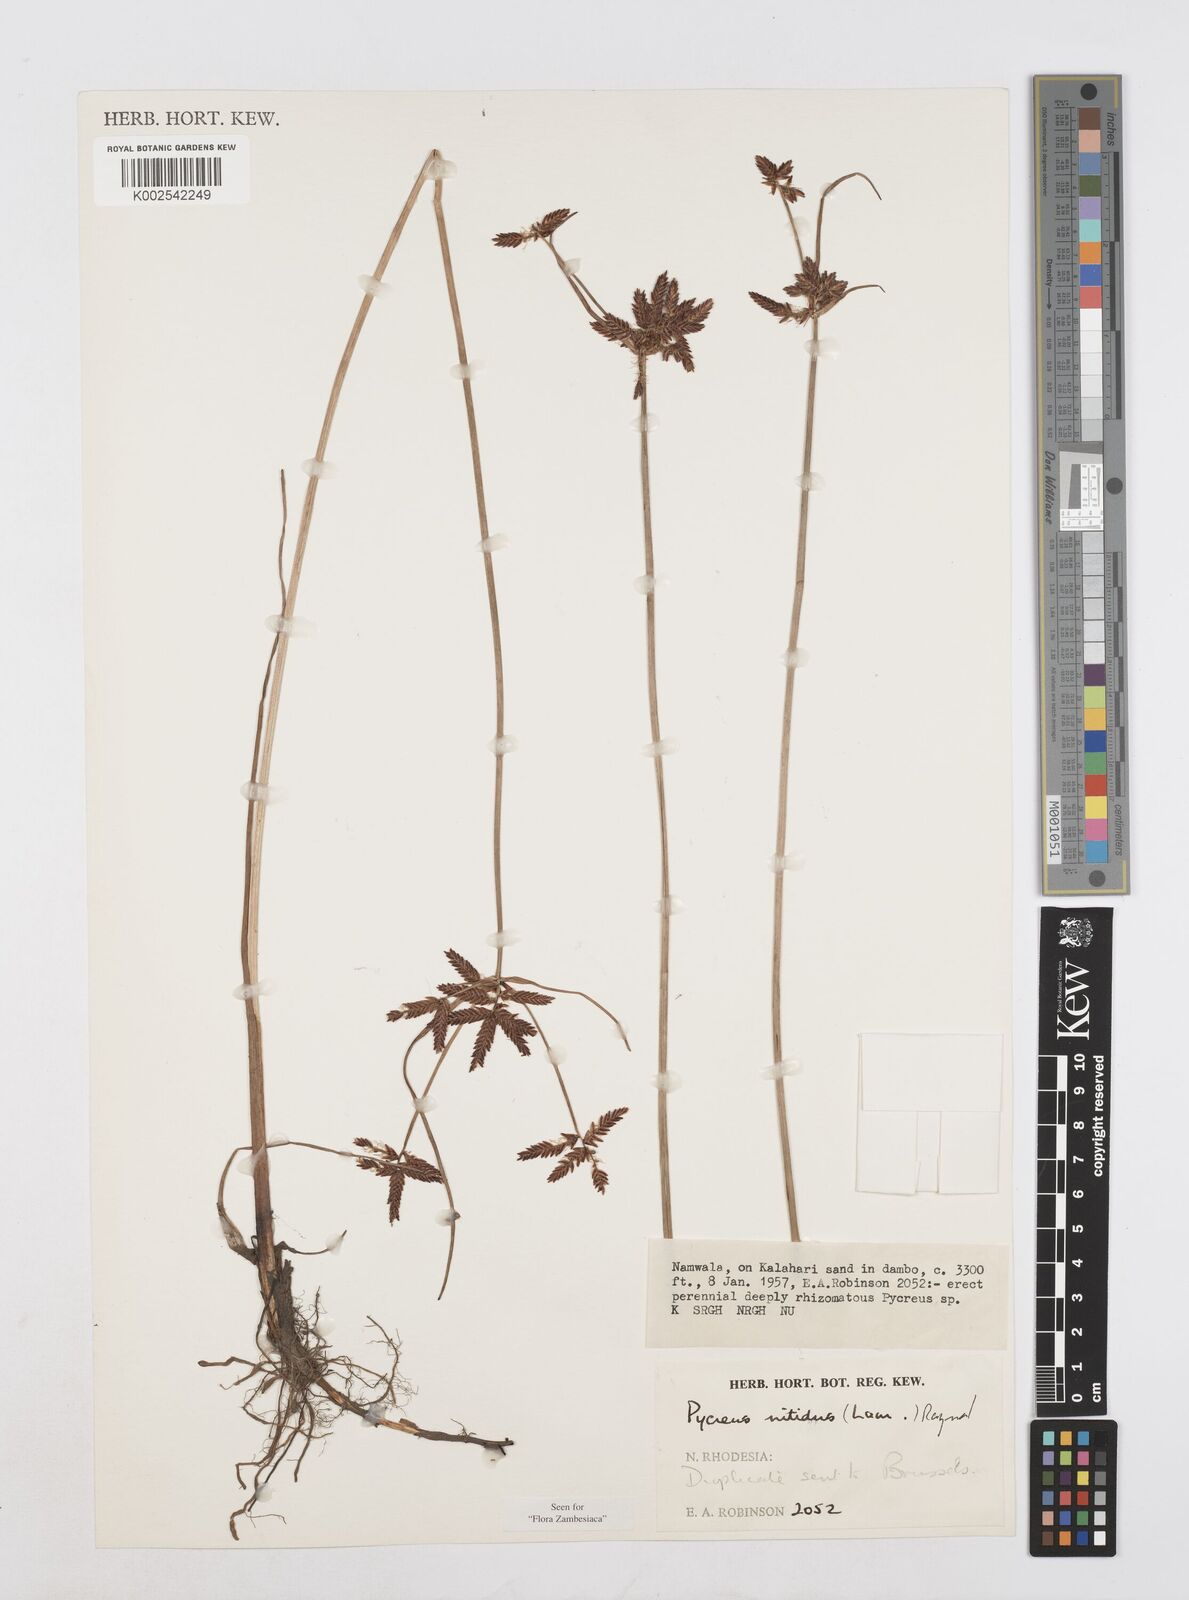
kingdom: Plantae
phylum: Tracheophyta
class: Liliopsida
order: Poales
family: Cyperaceae
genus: Cyperus
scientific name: Cyperus nitidus
